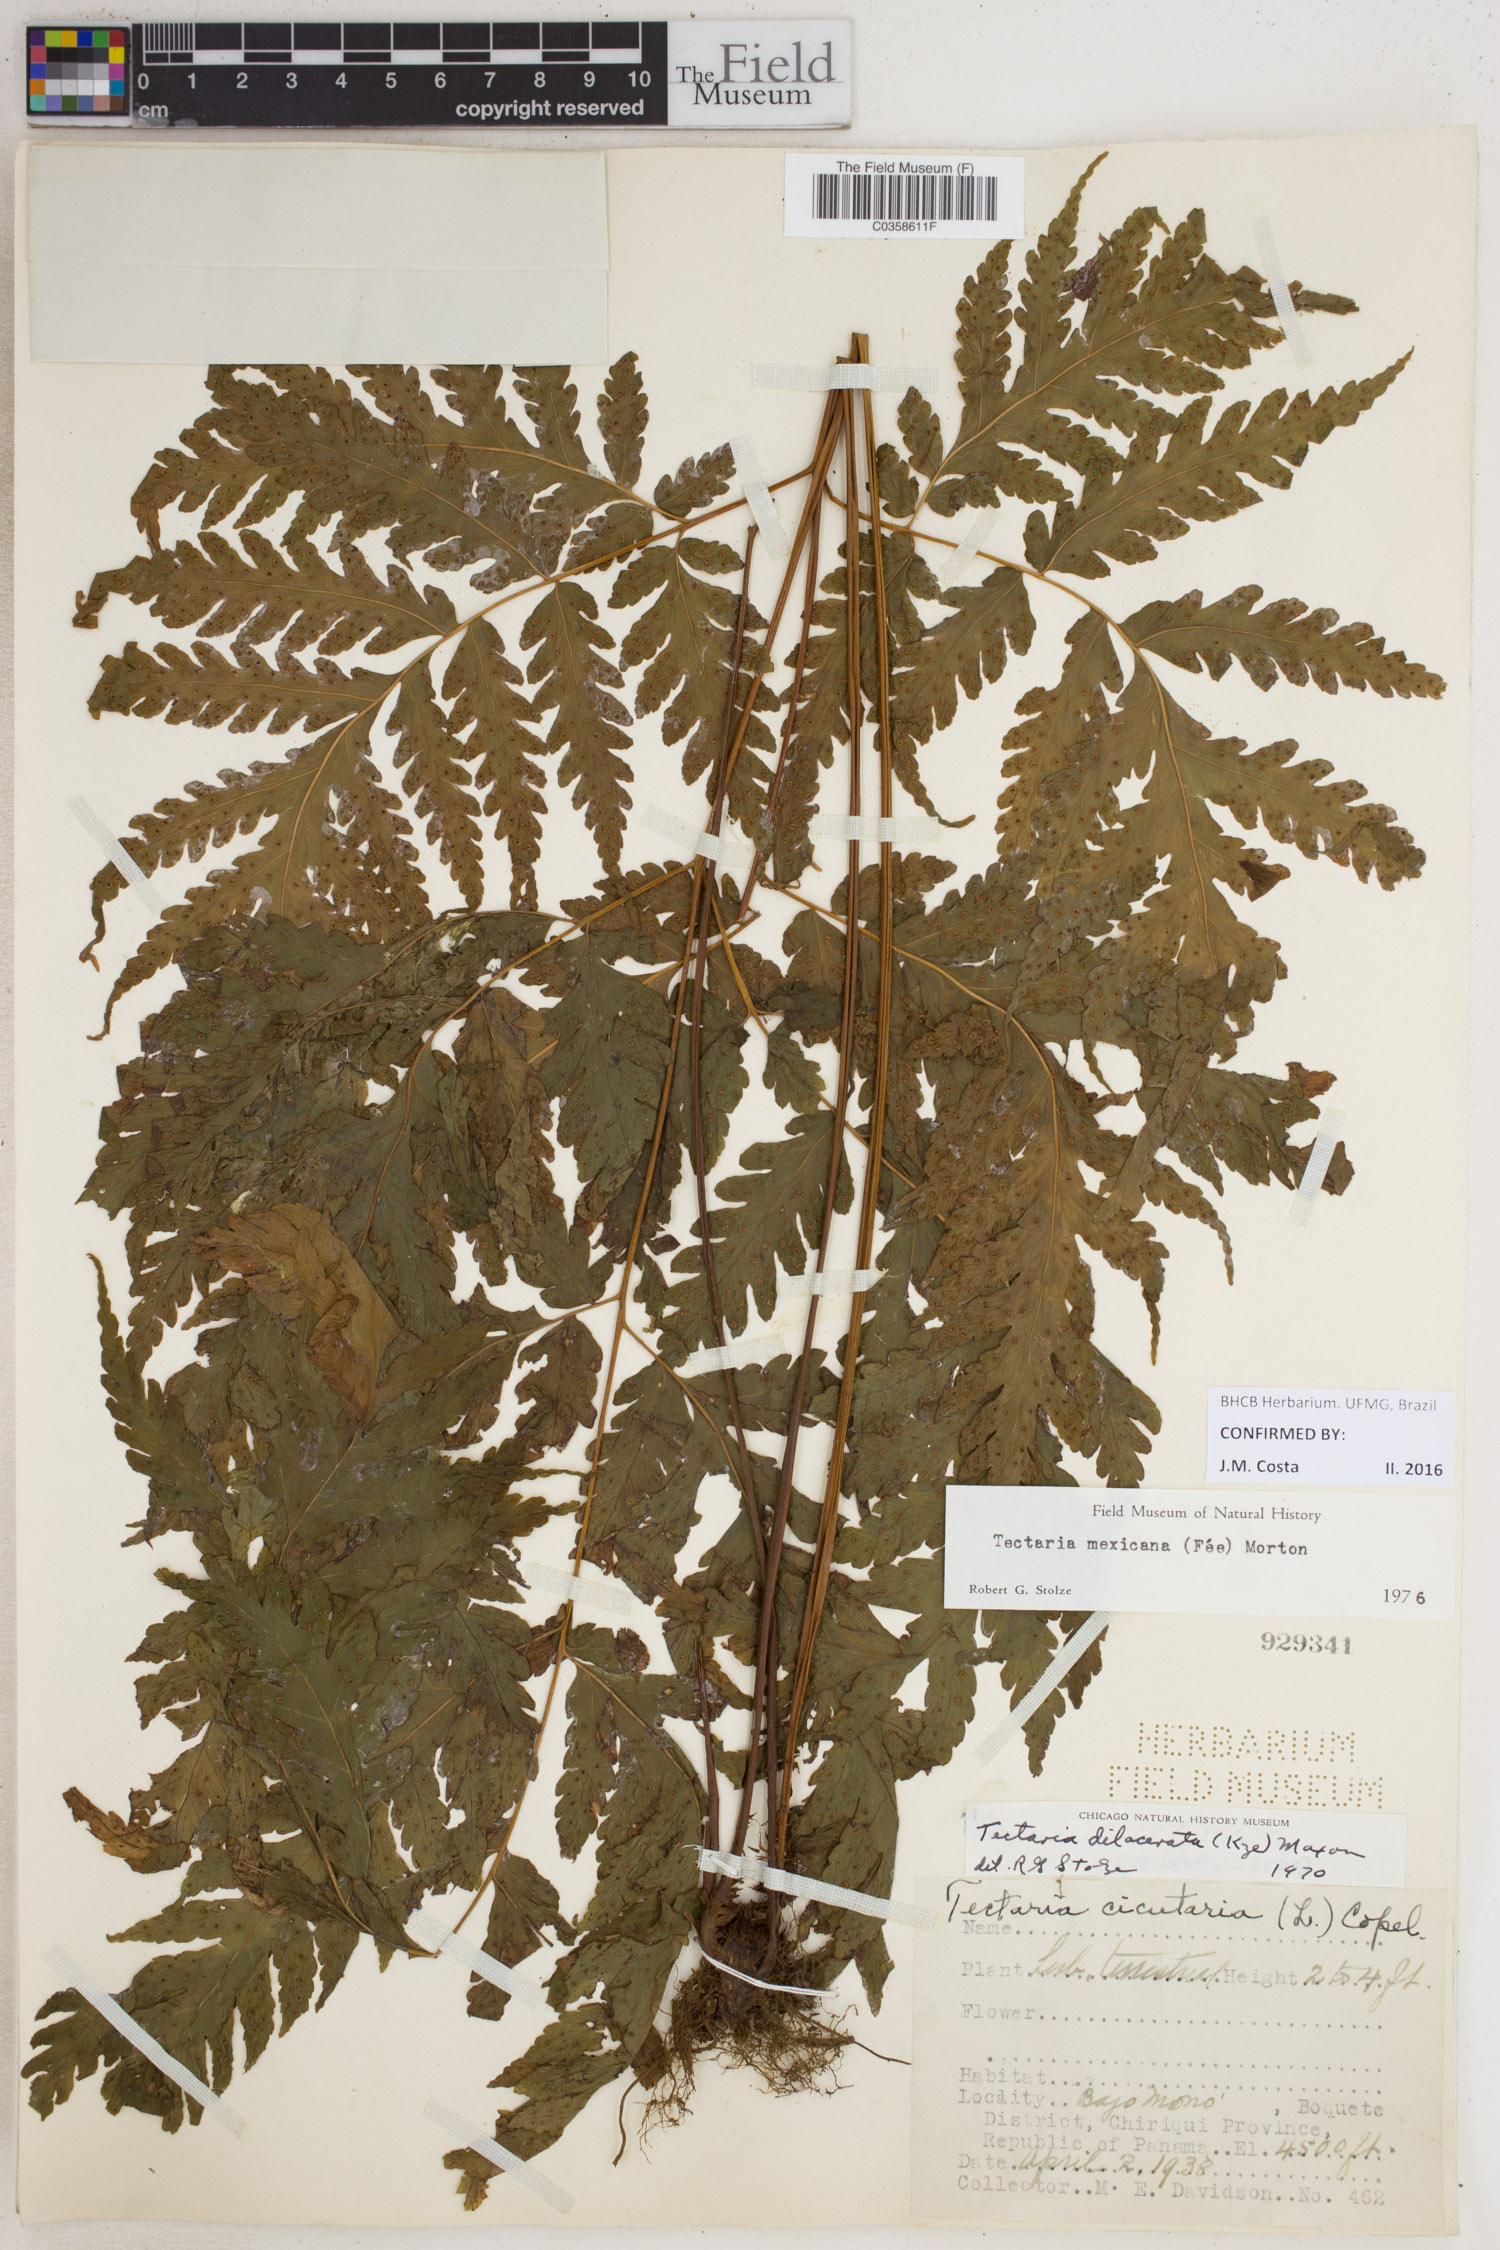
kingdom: Plantae
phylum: Tracheophyta
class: Polypodiopsida
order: Polypodiales
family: Tectariaceae
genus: Tectaria
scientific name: Tectaria mexicana
